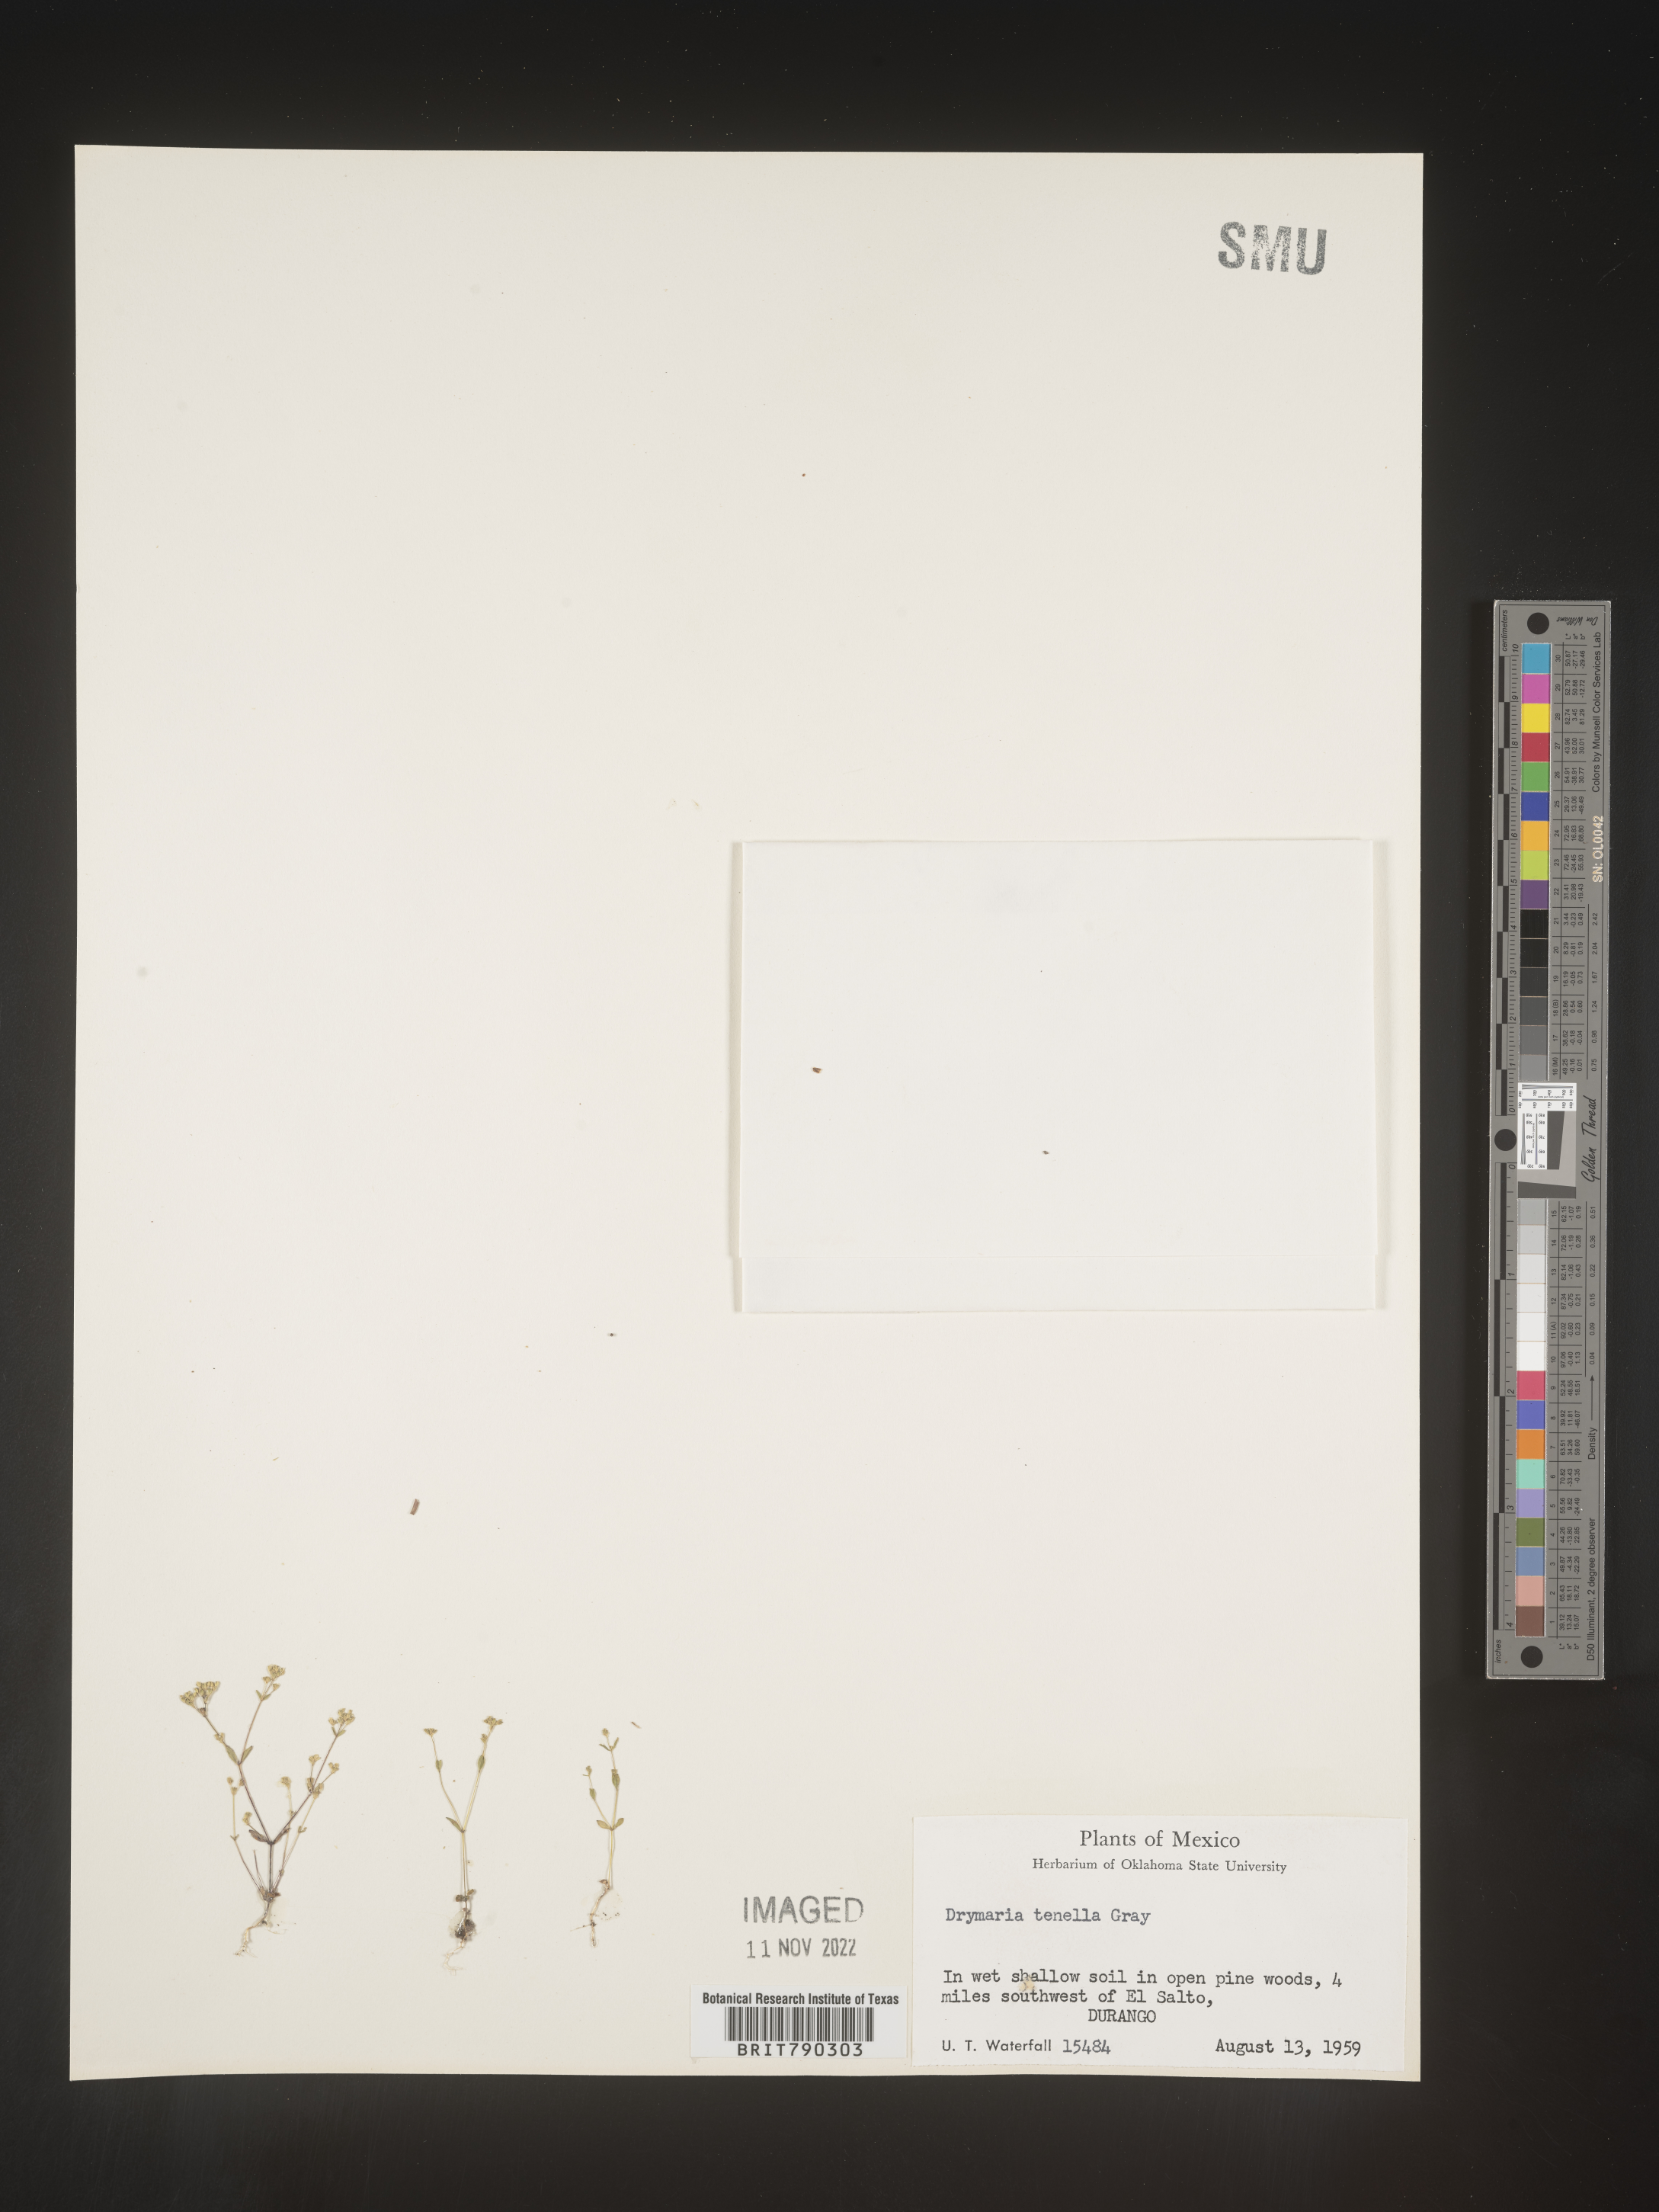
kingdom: Plantae
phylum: Tracheophyta
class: Magnoliopsida
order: Caryophyllales
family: Caryophyllaceae
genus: Drymaria
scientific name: Drymaria
